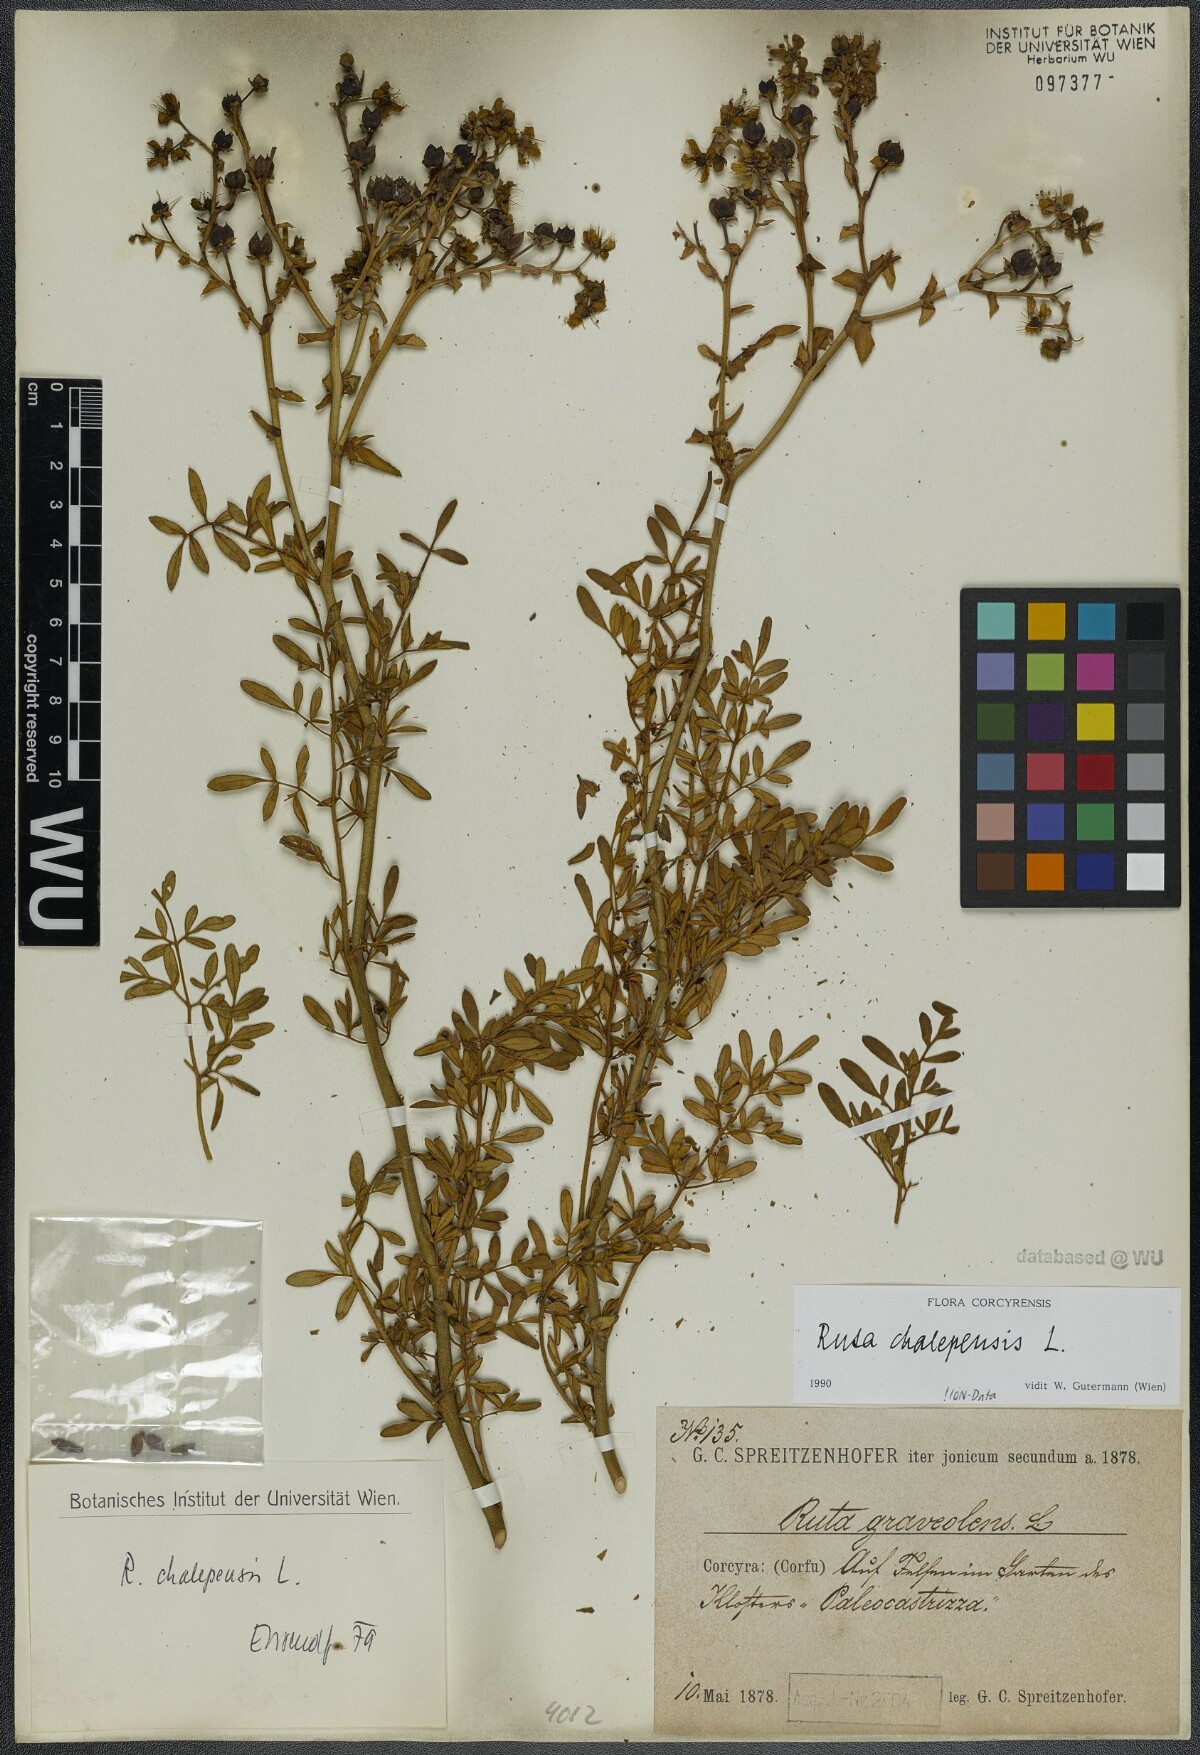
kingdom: Plantae
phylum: Tracheophyta
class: Magnoliopsida
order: Sapindales
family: Rutaceae
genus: Ruta
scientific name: Ruta chalepensis
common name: Fringed rue
